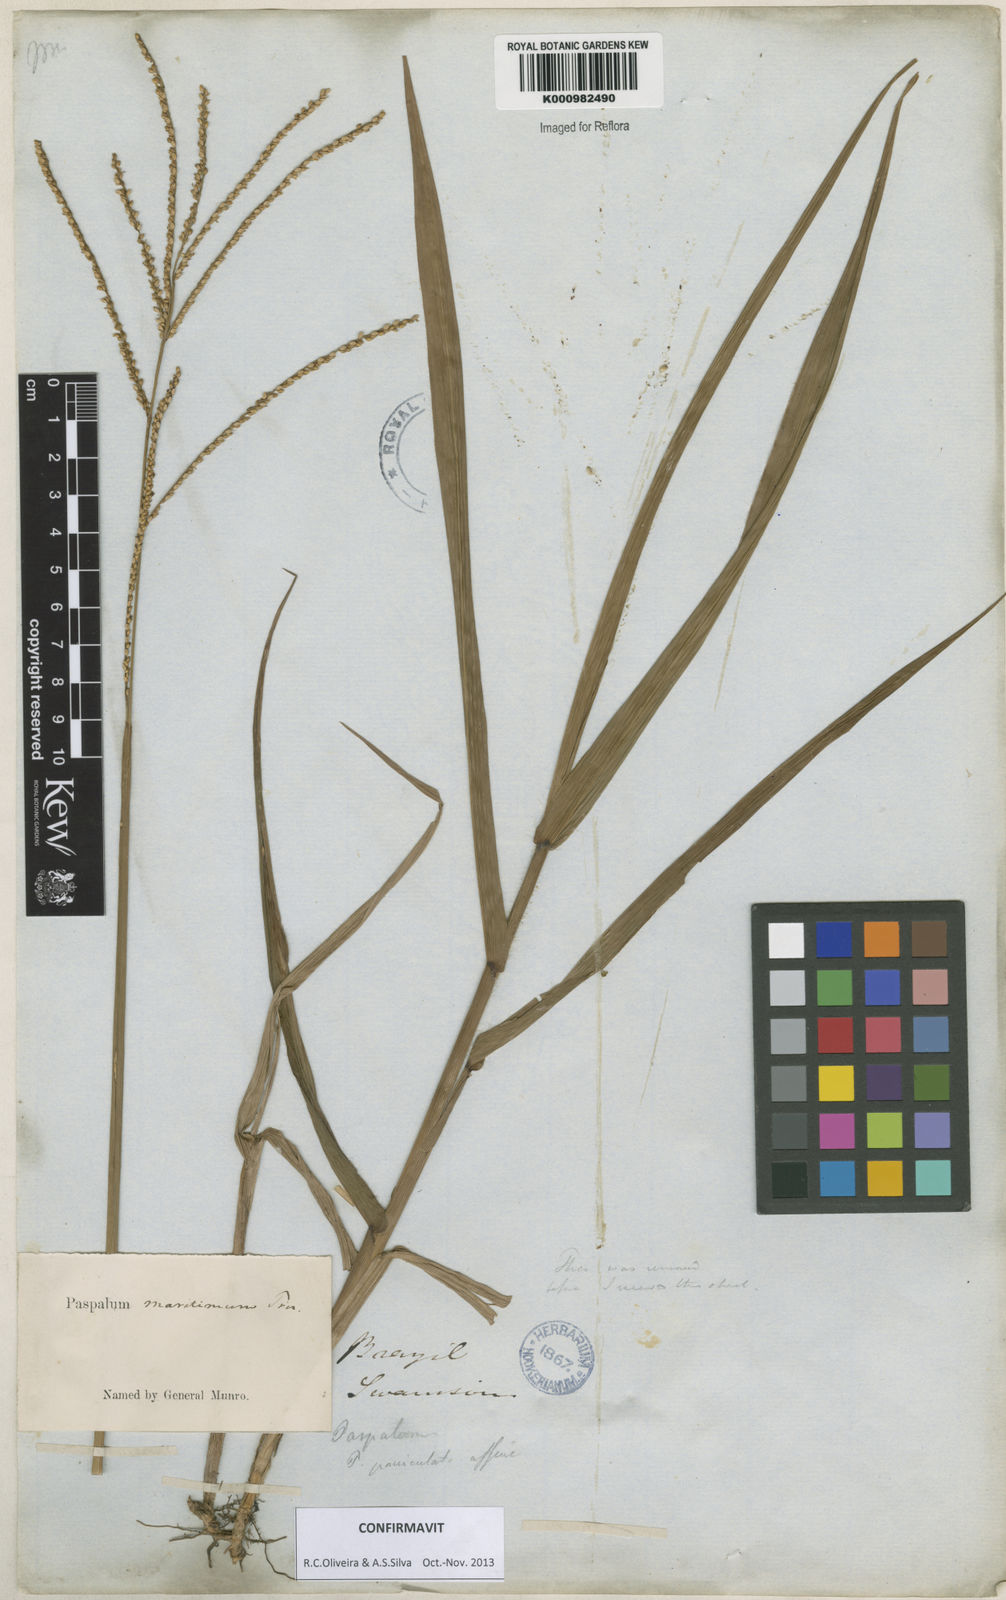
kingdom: Plantae
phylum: Tracheophyta
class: Liliopsida
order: Poales
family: Poaceae
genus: Paspalum
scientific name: Paspalum maritimum
